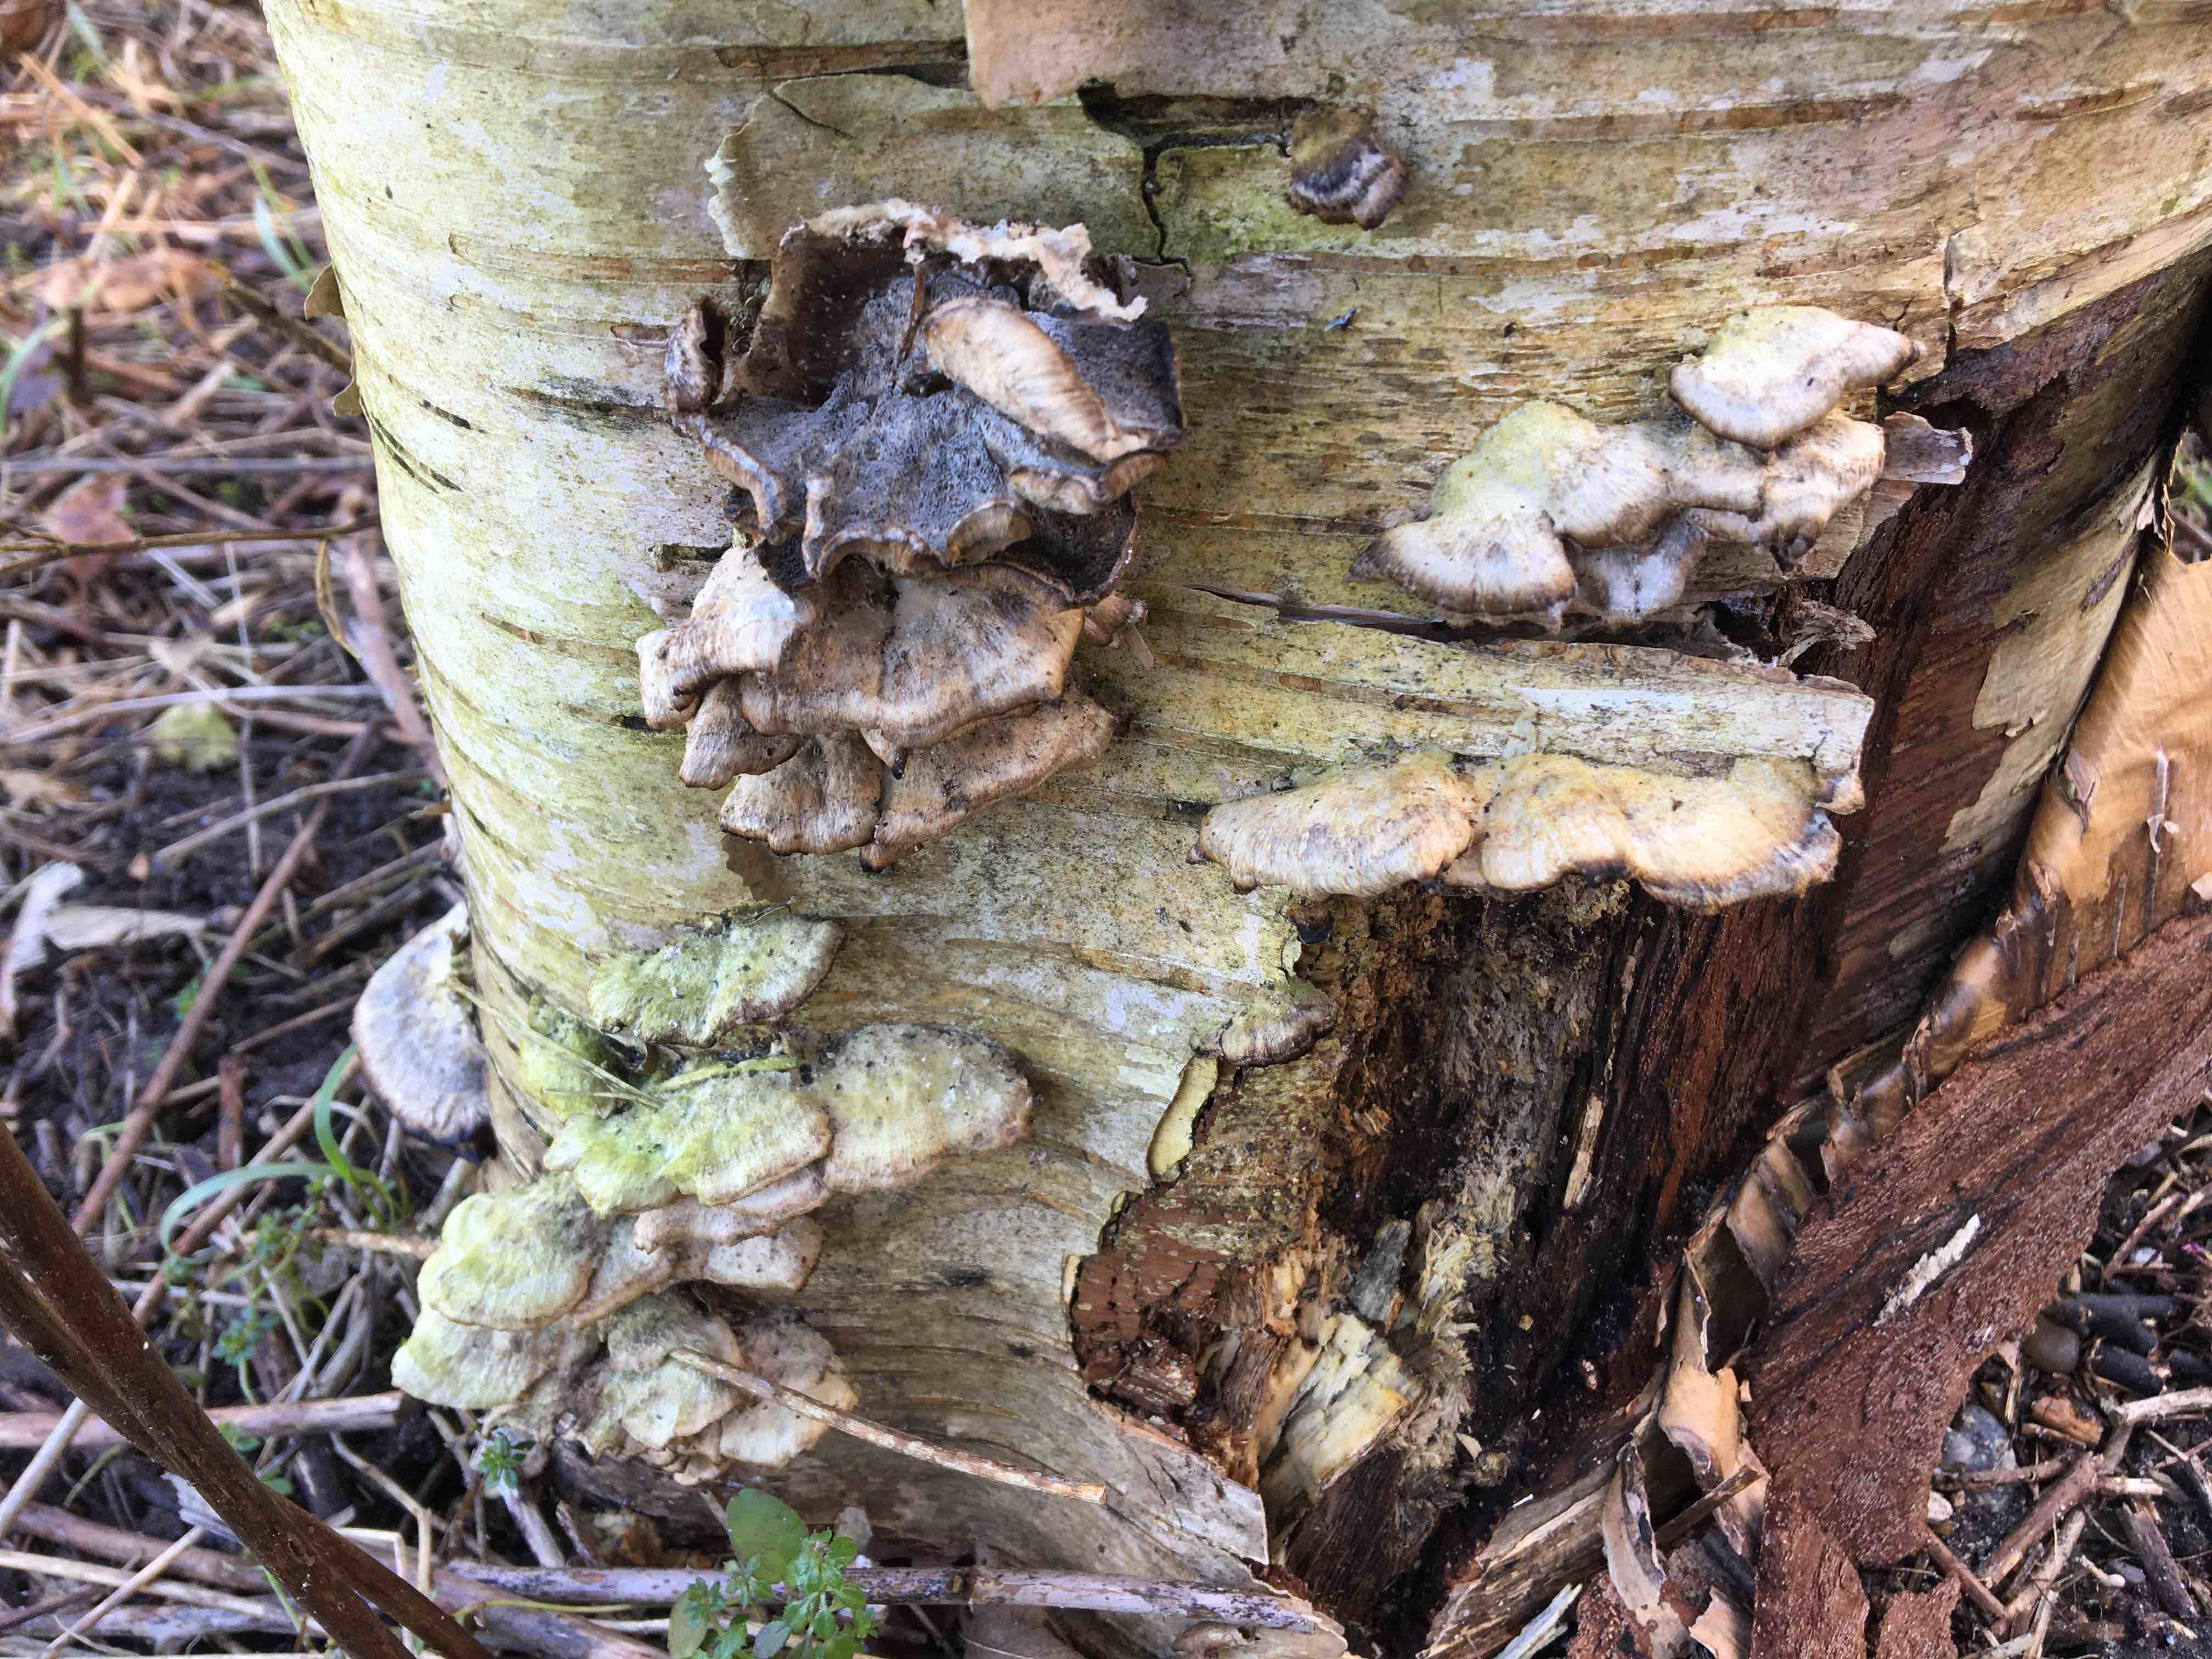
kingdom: Fungi
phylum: Basidiomycota
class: Agaricomycetes
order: Polyporales
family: Phanerochaetaceae
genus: Bjerkandera
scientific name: Bjerkandera adusta
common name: sveden sodporesvamp
